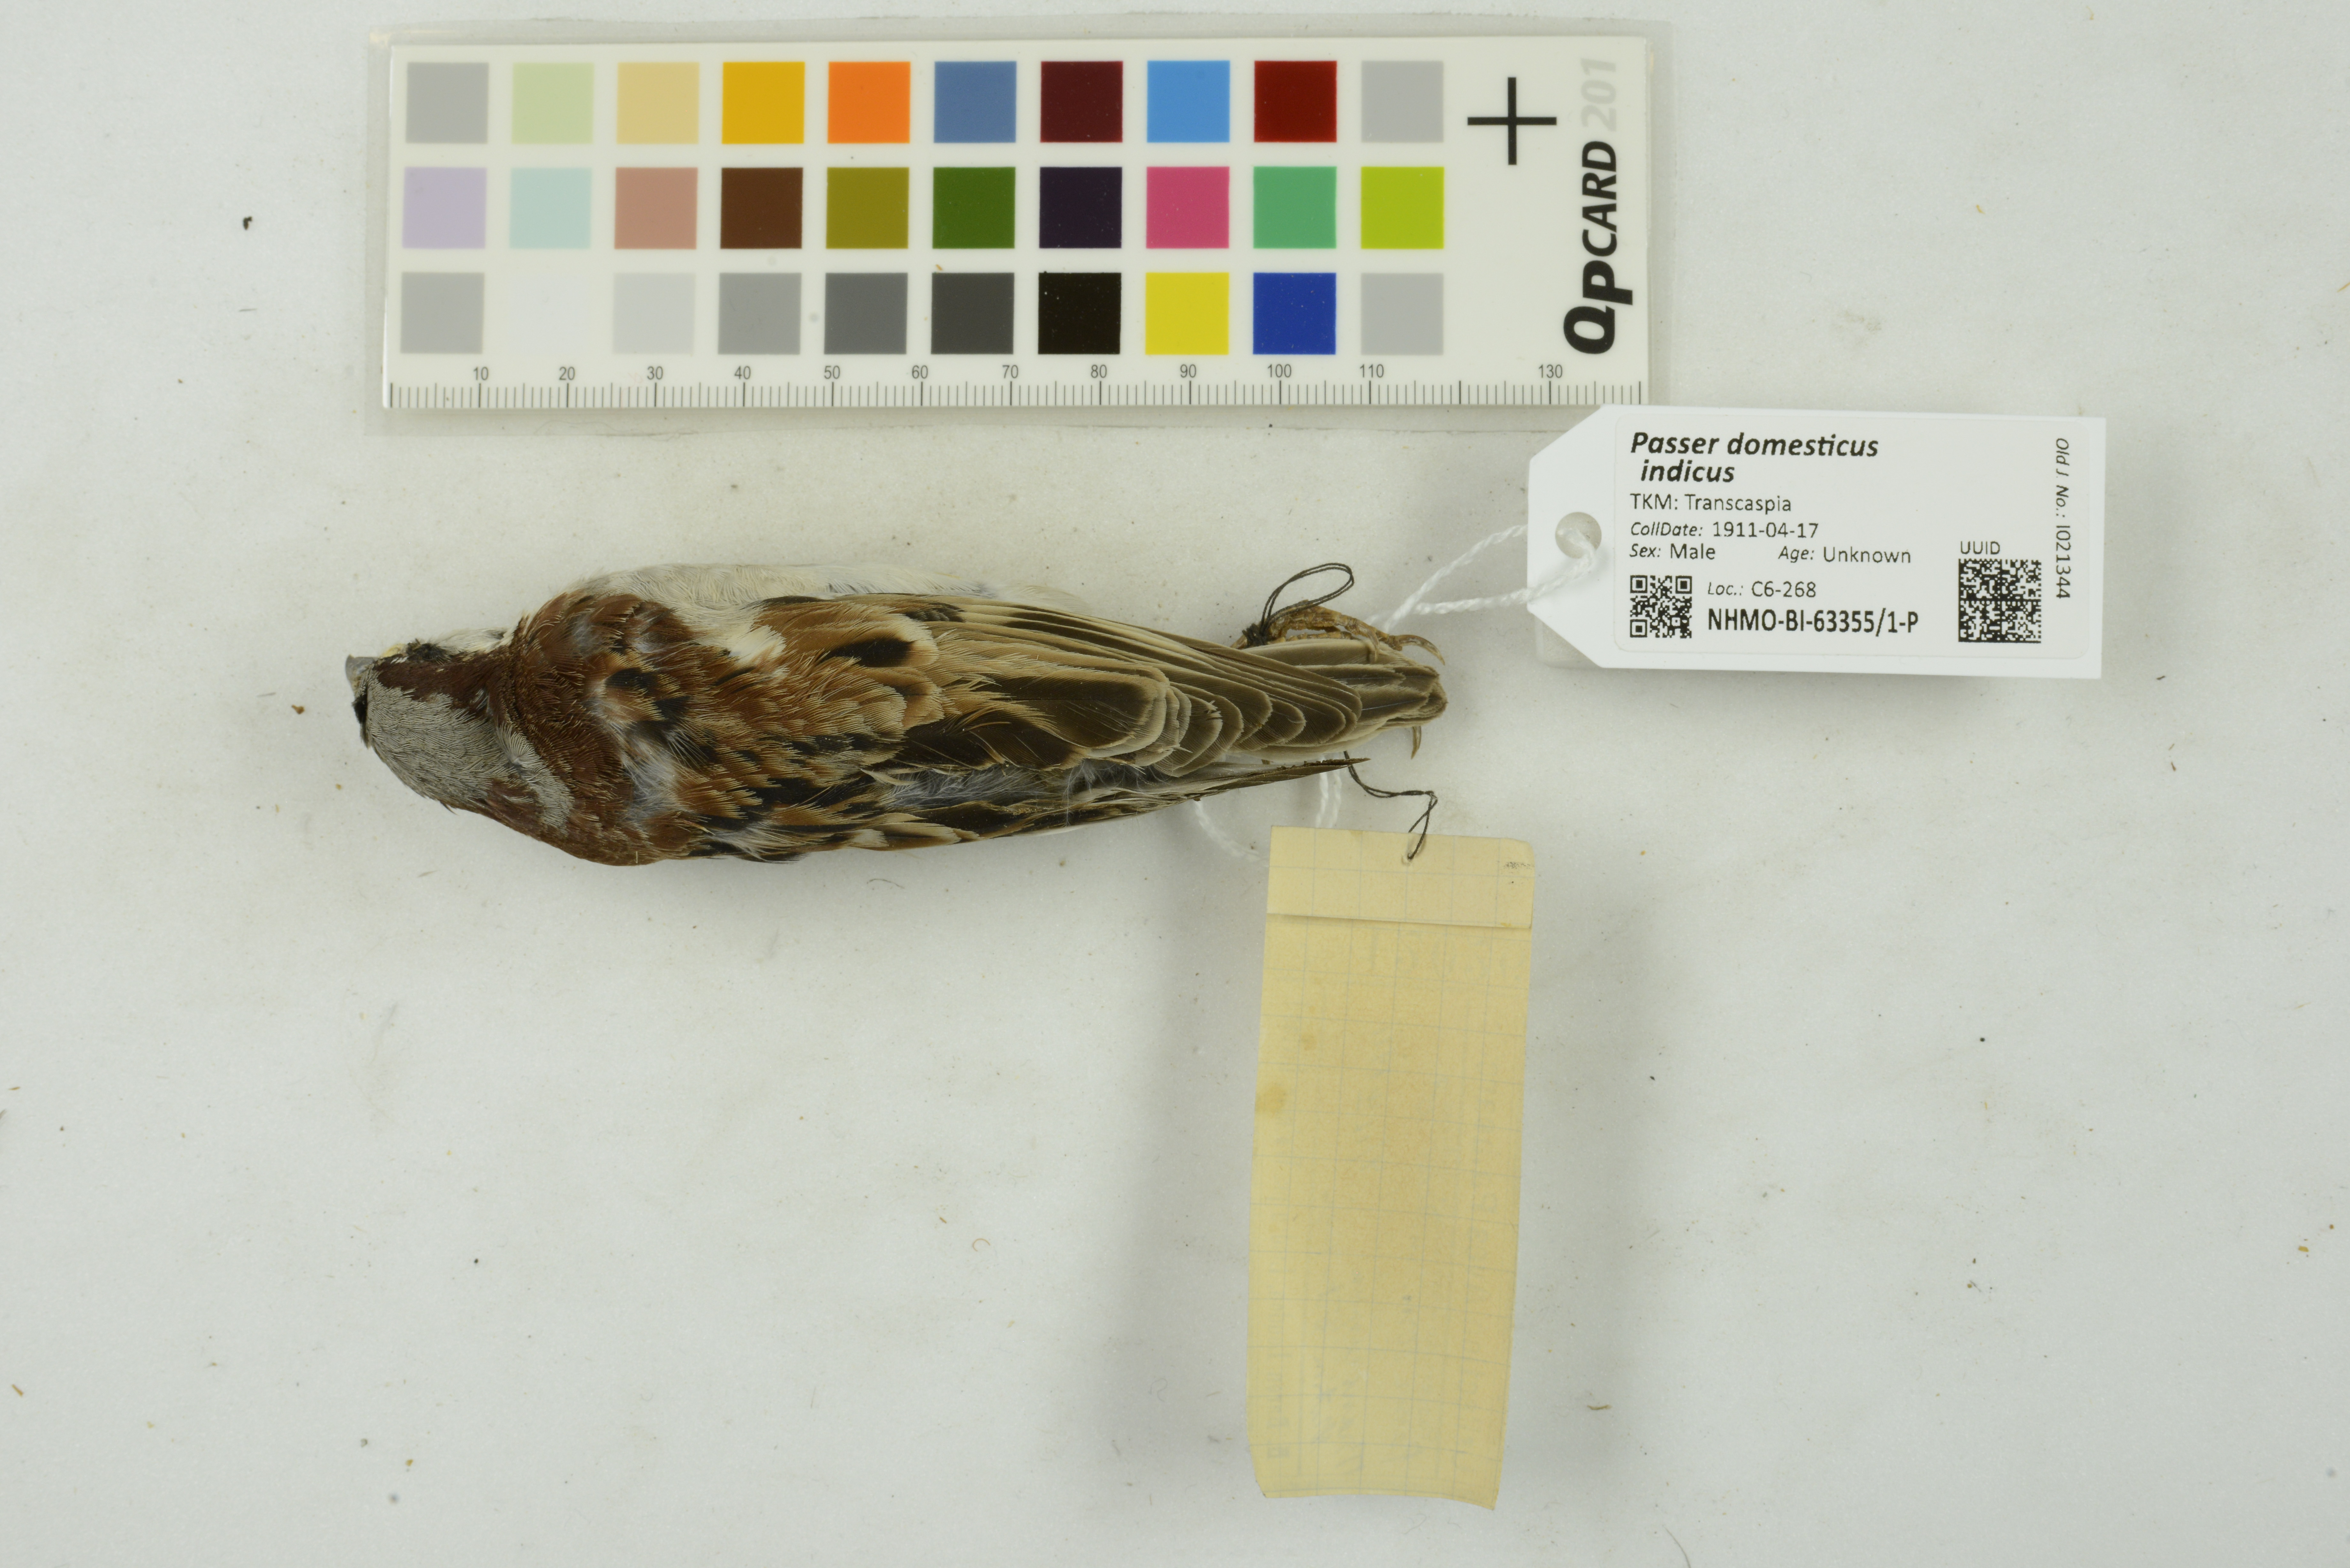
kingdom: Animalia
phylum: Chordata
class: Aves
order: Passeriformes
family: Passeridae
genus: Passer
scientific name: Passer domesticus
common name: House sparrow
